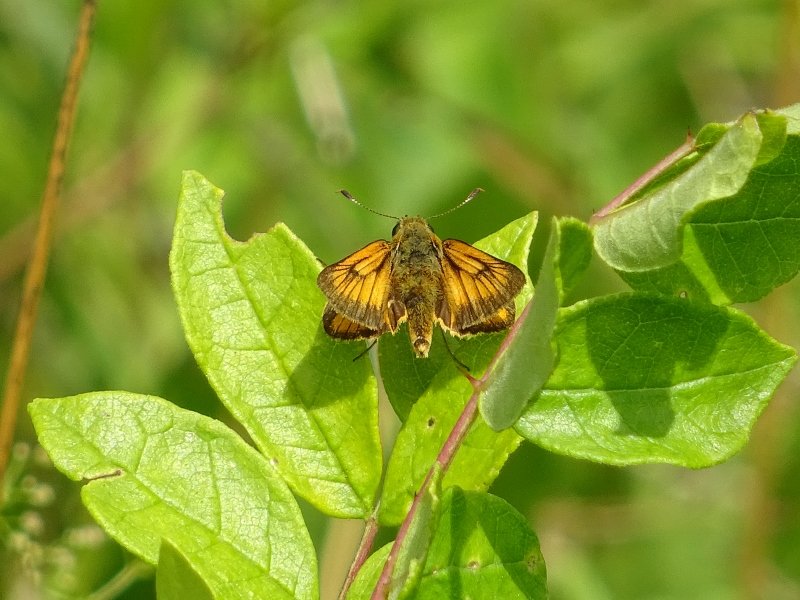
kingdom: Animalia
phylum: Arthropoda
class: Insecta
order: Lepidoptera
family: Hesperiidae
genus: Atrytone
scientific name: Atrytone delaware
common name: Delaware Skipper
